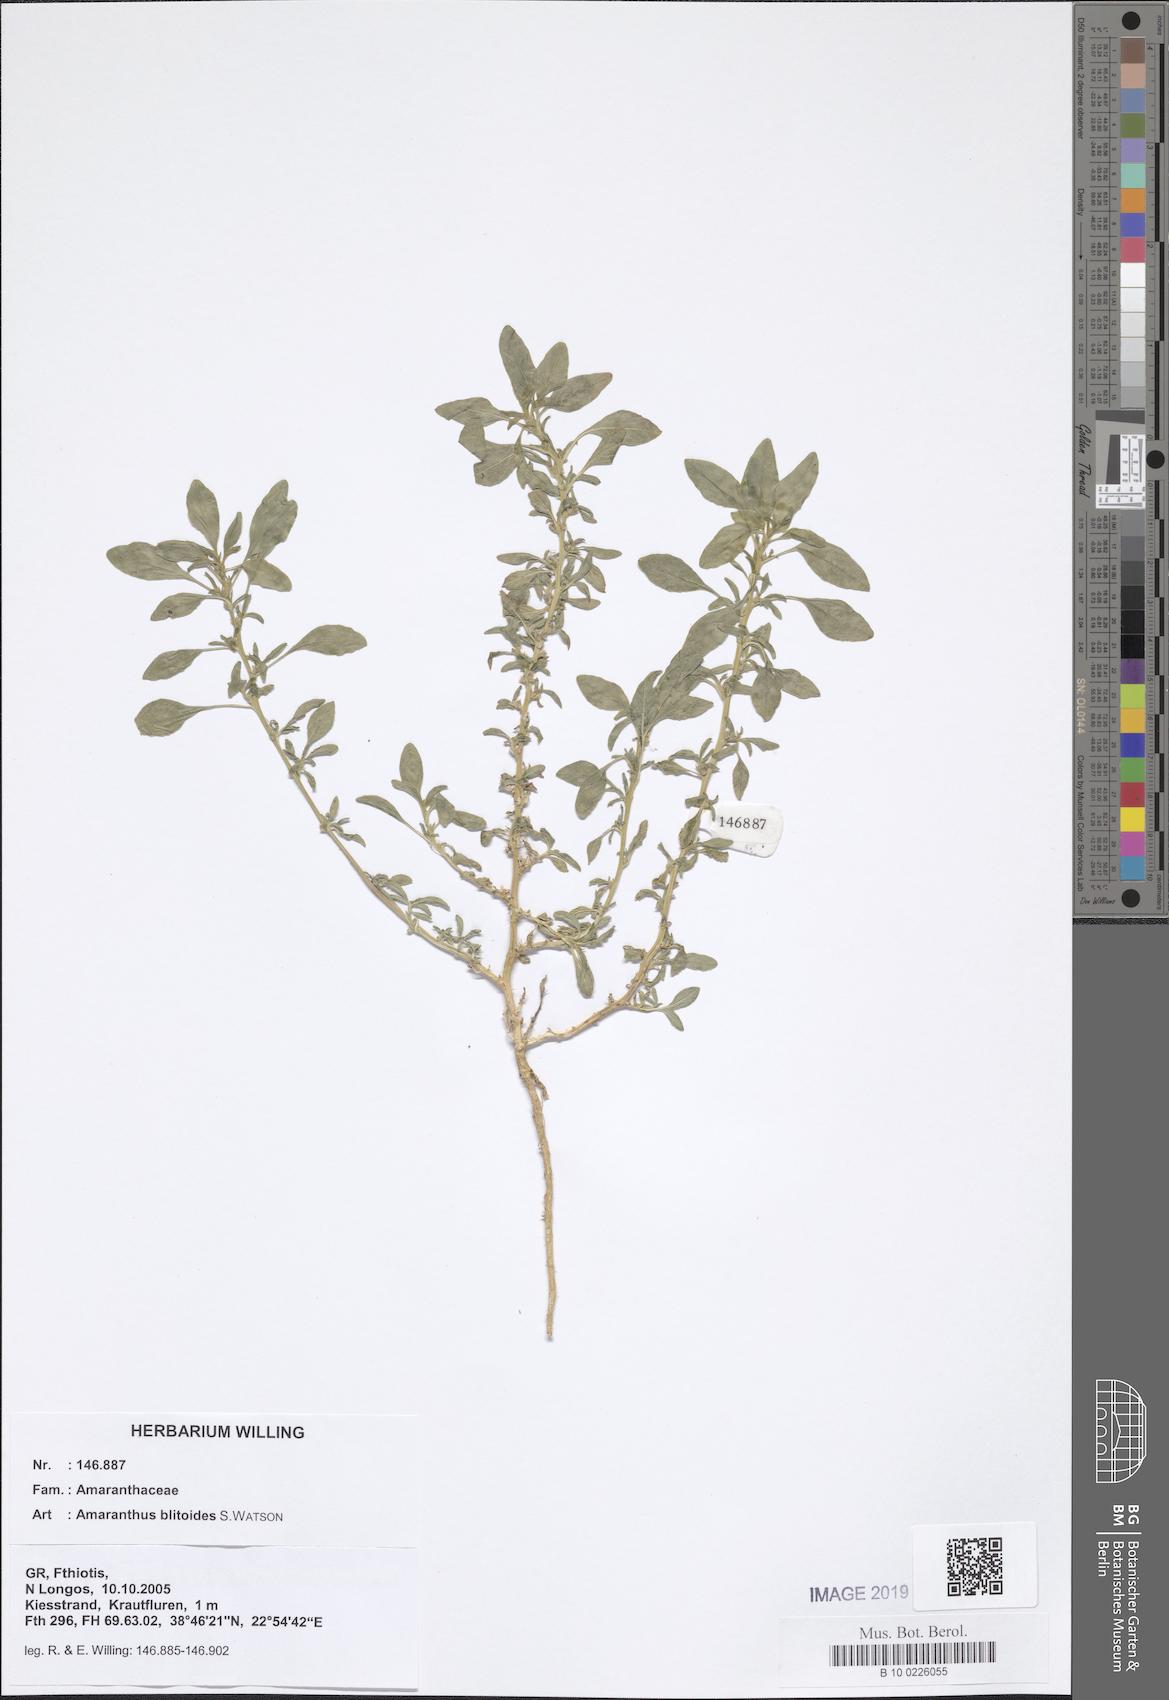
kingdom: Plantae
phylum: Tracheophyta
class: Magnoliopsida
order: Caryophyllales
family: Amaranthaceae
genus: Amaranthus
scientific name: Amaranthus blitoides
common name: Prostrate pigweed
